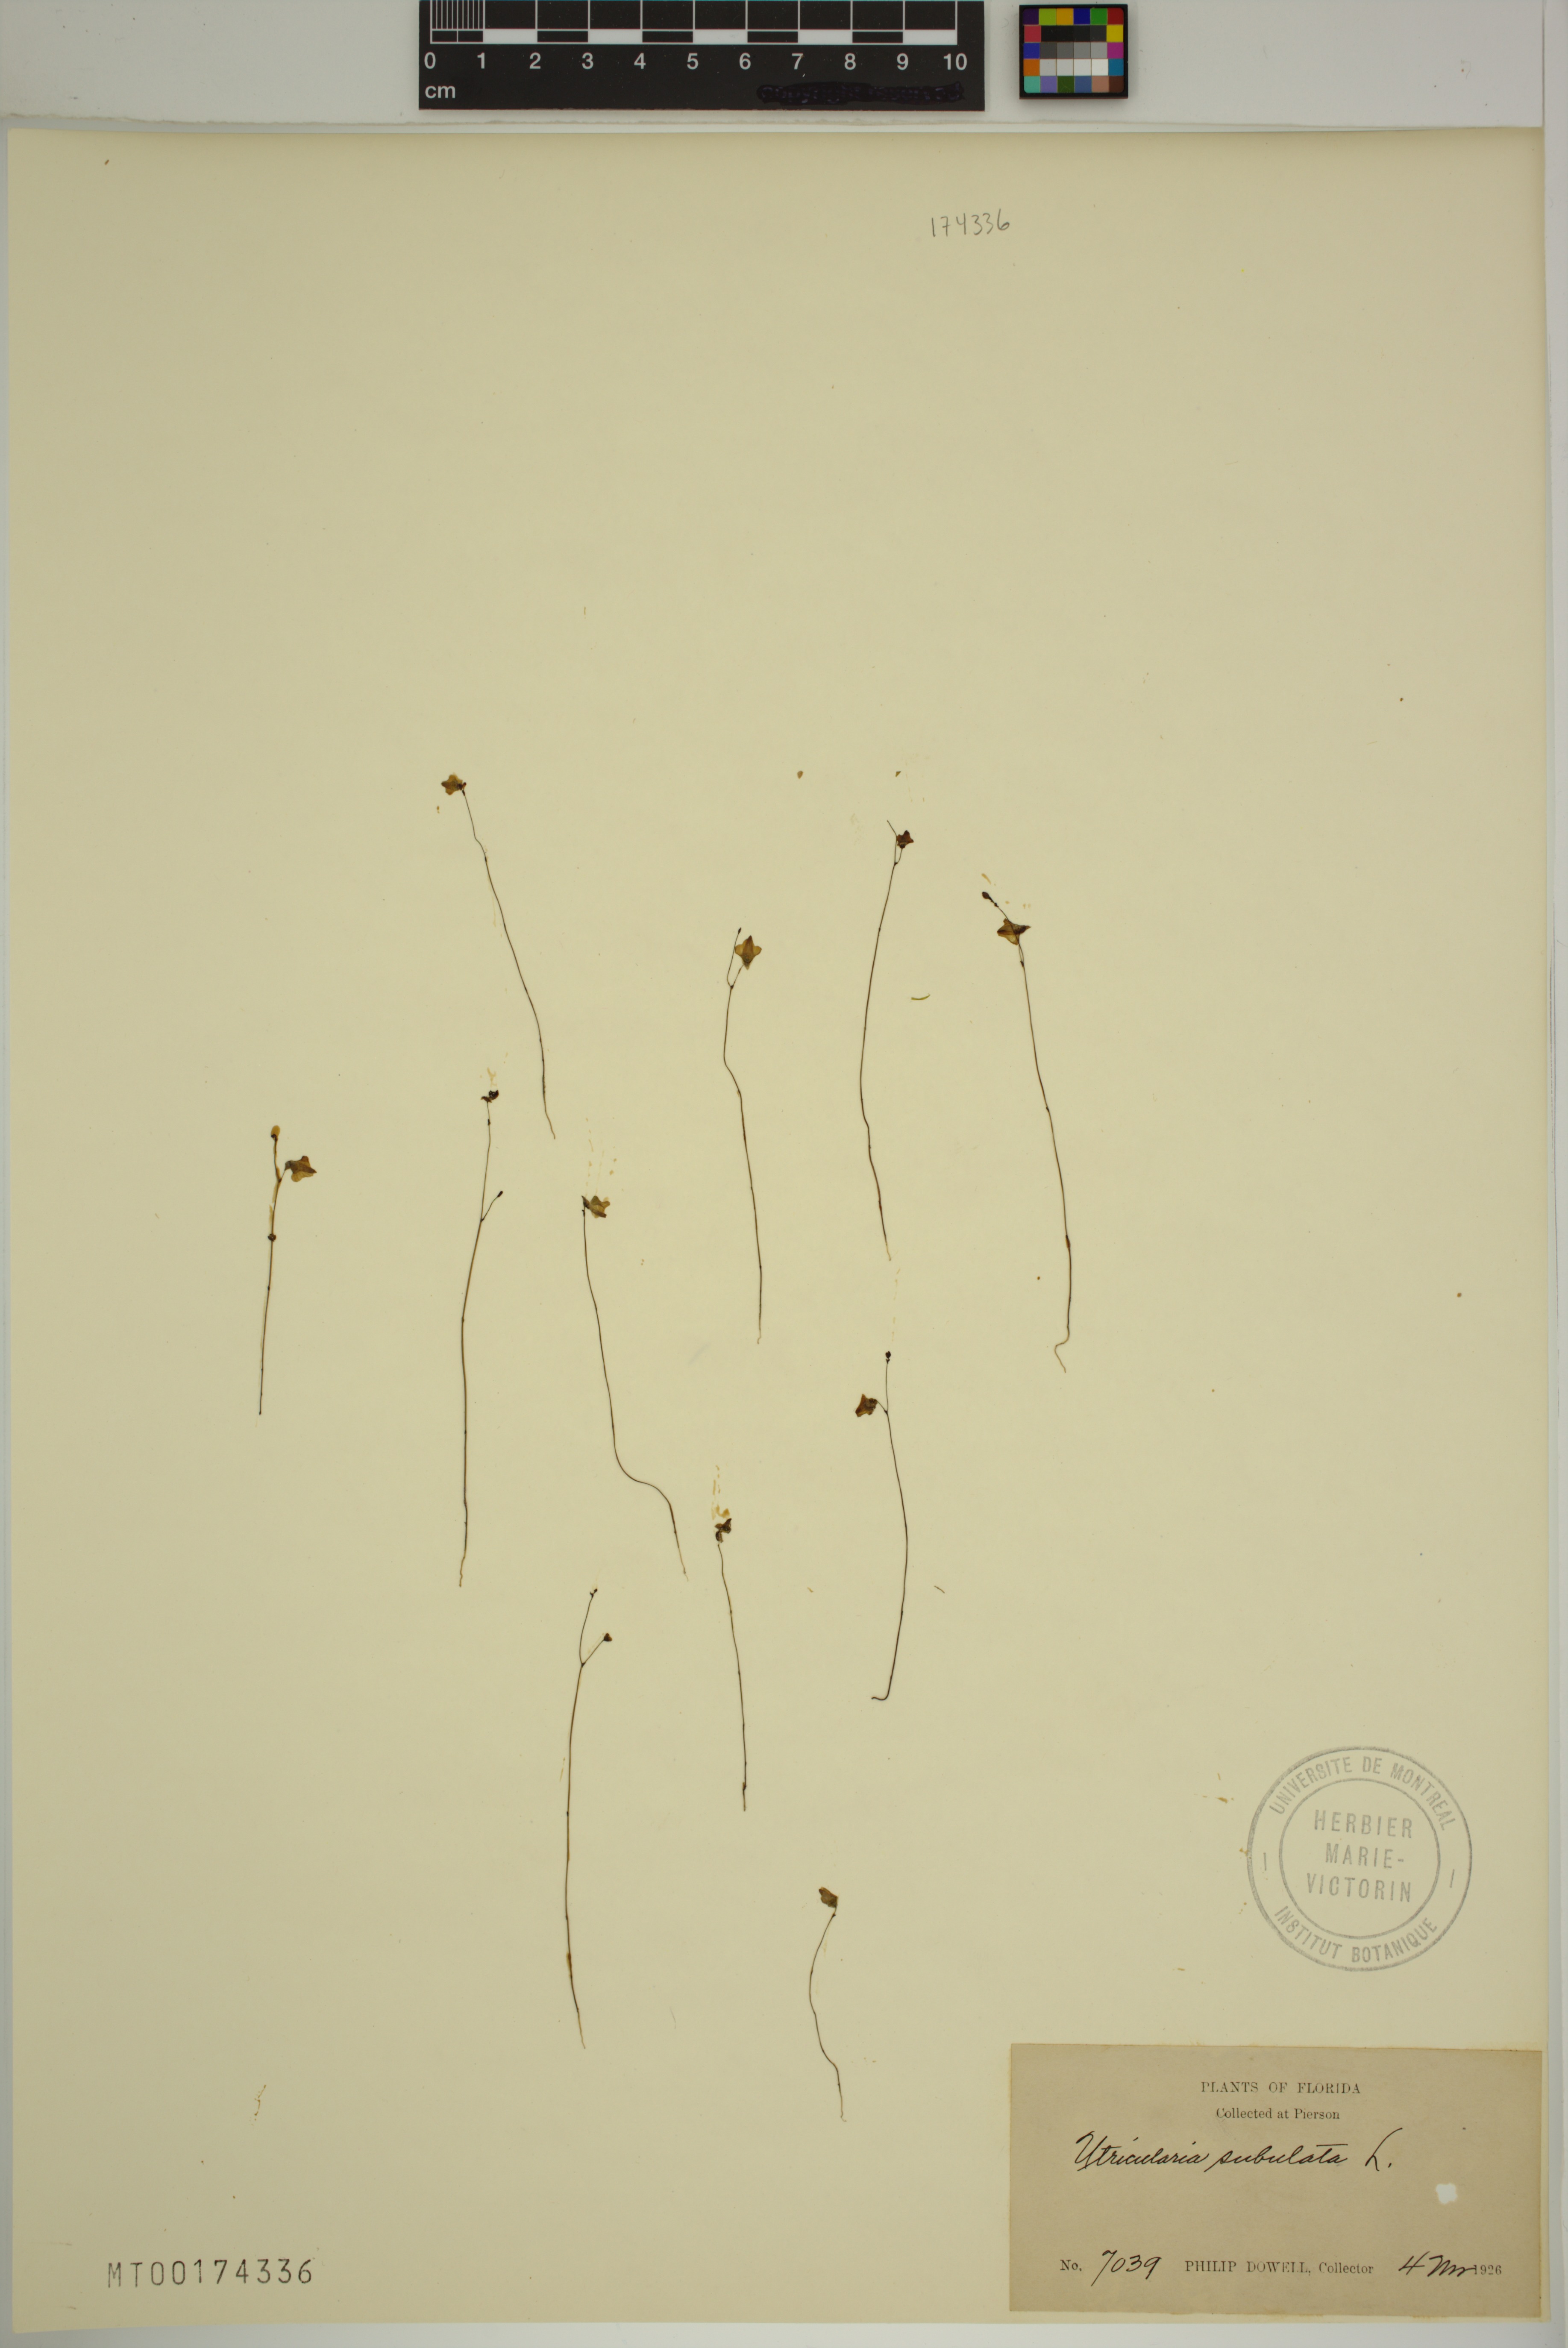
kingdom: Plantae
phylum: Tracheophyta
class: Magnoliopsida
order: Lamiales
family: Lentibulariaceae
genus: Utricularia
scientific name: Utricularia subulata
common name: Tiny bladderwort
